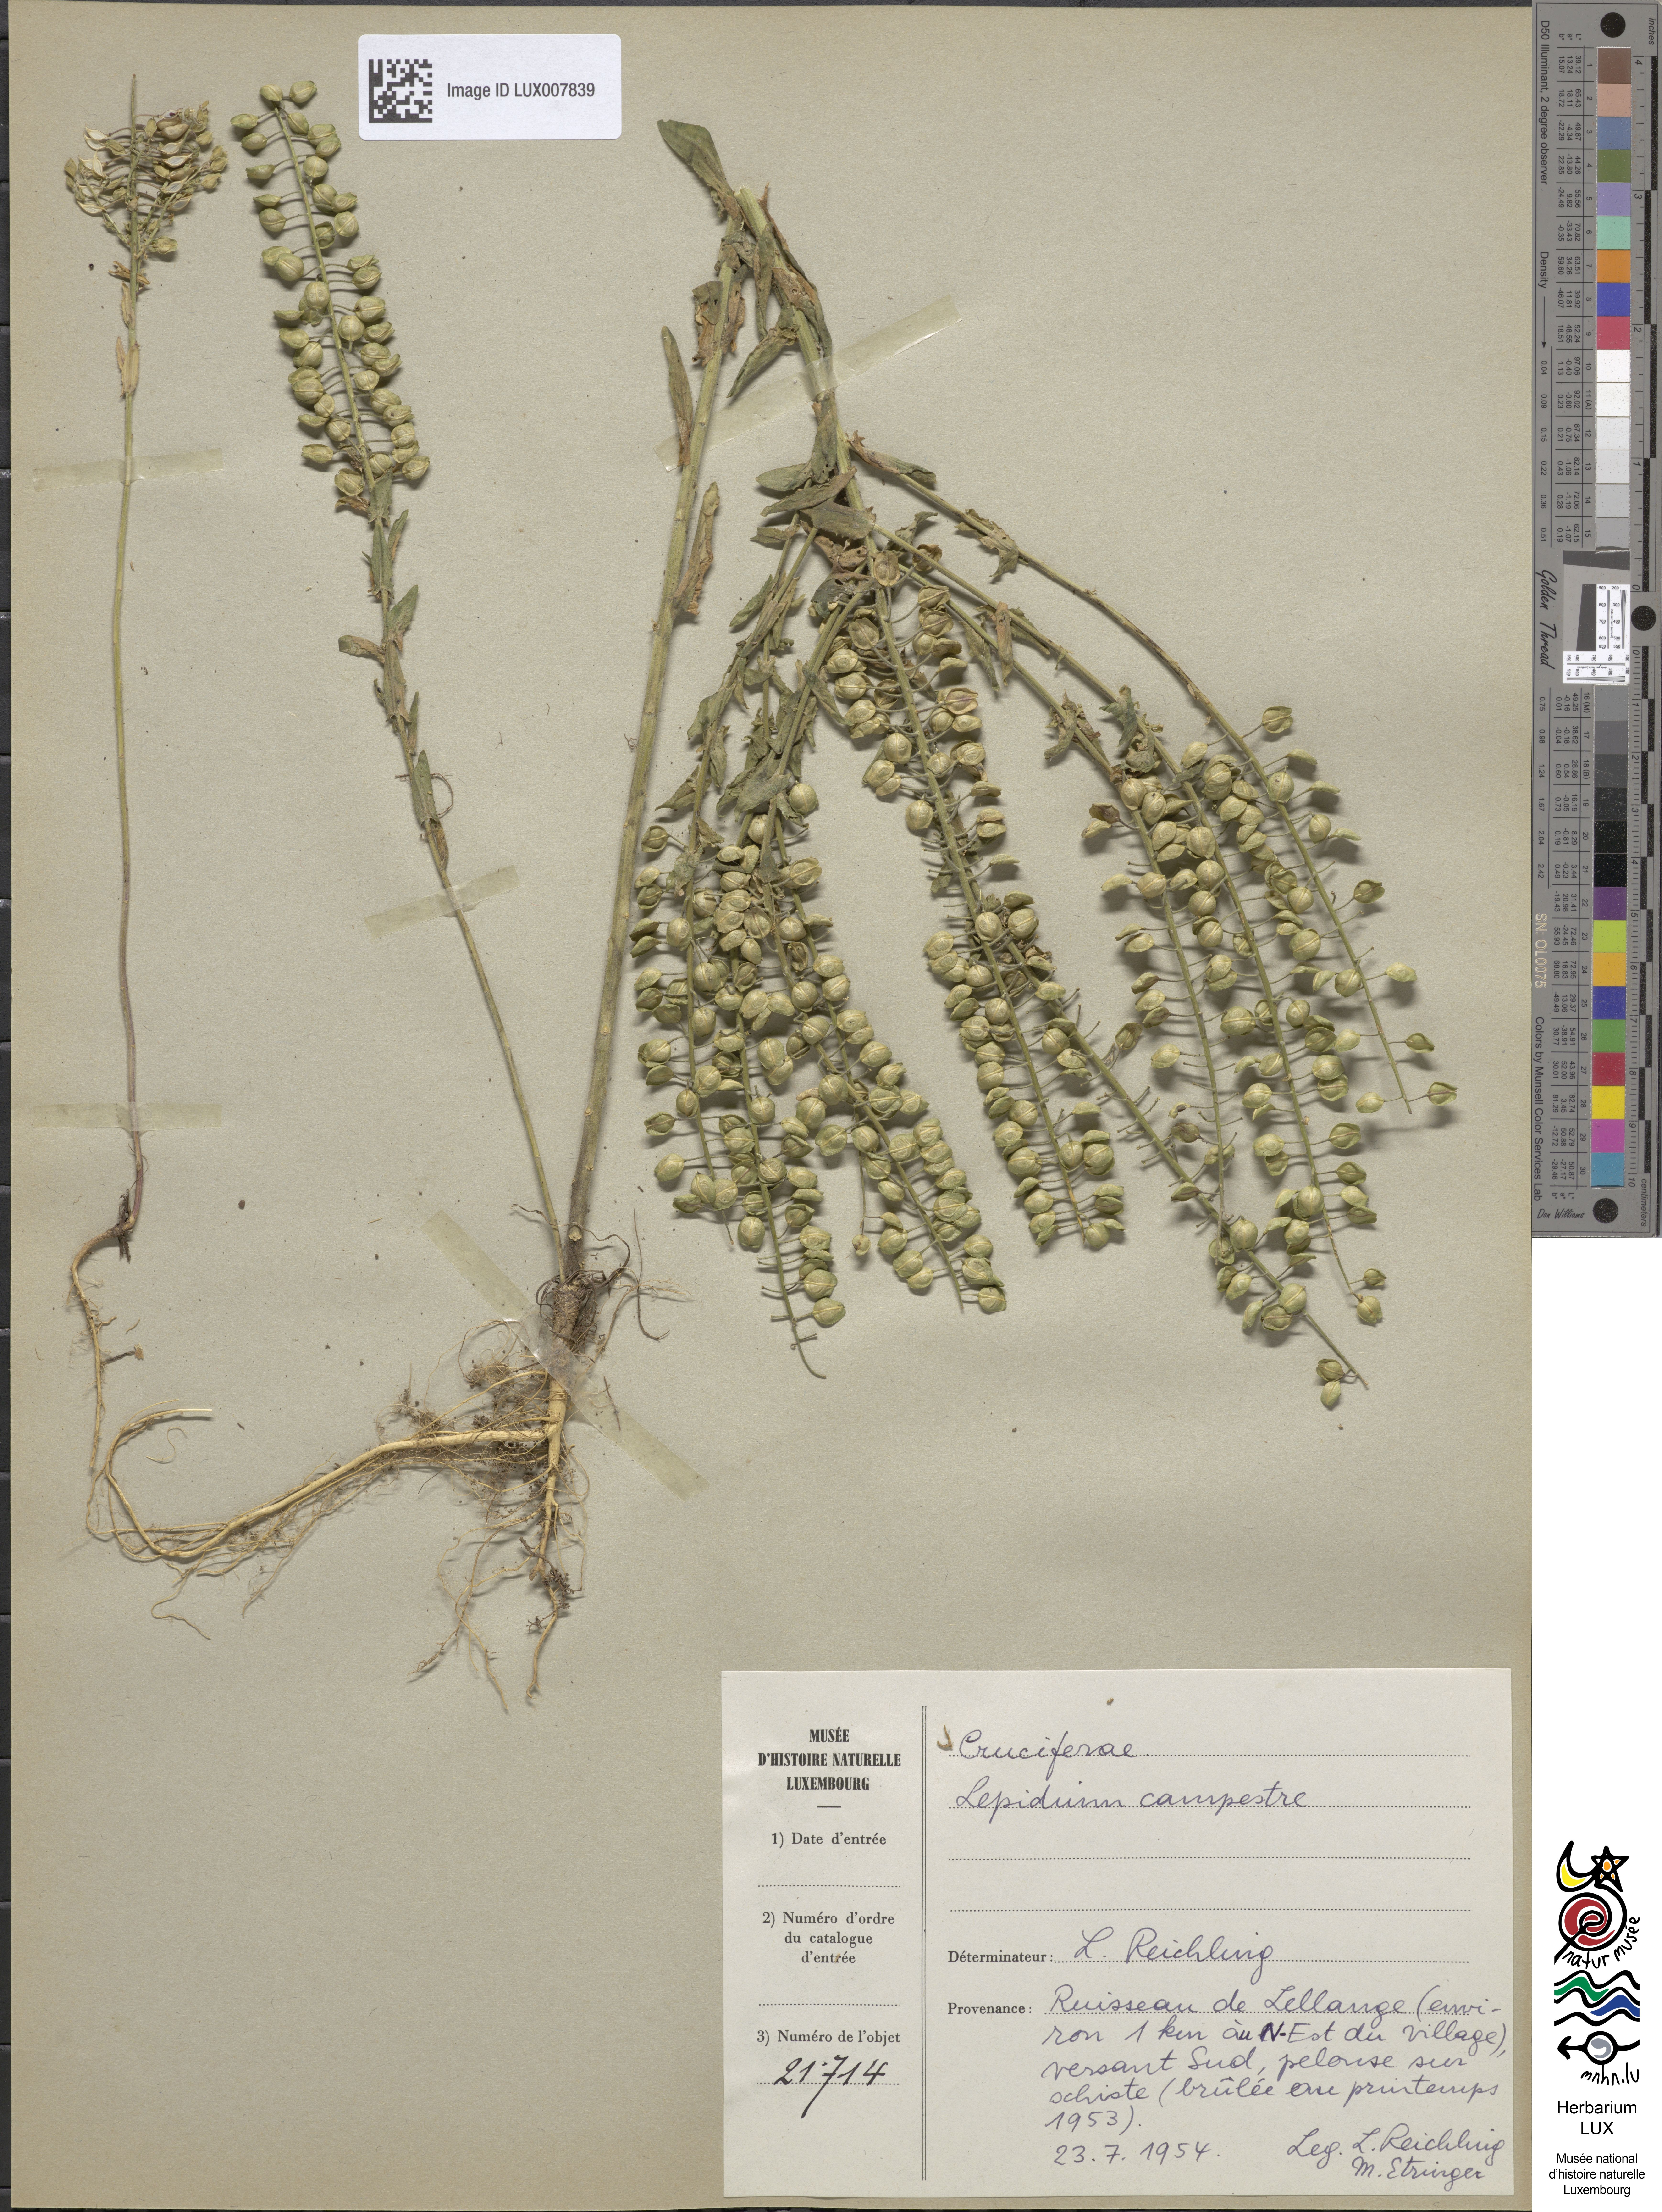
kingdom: Plantae
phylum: Tracheophyta
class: Magnoliopsida
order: Brassicales
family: Brassicaceae
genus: Lepidium
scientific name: Lepidium campestre
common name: Field pepperwort
